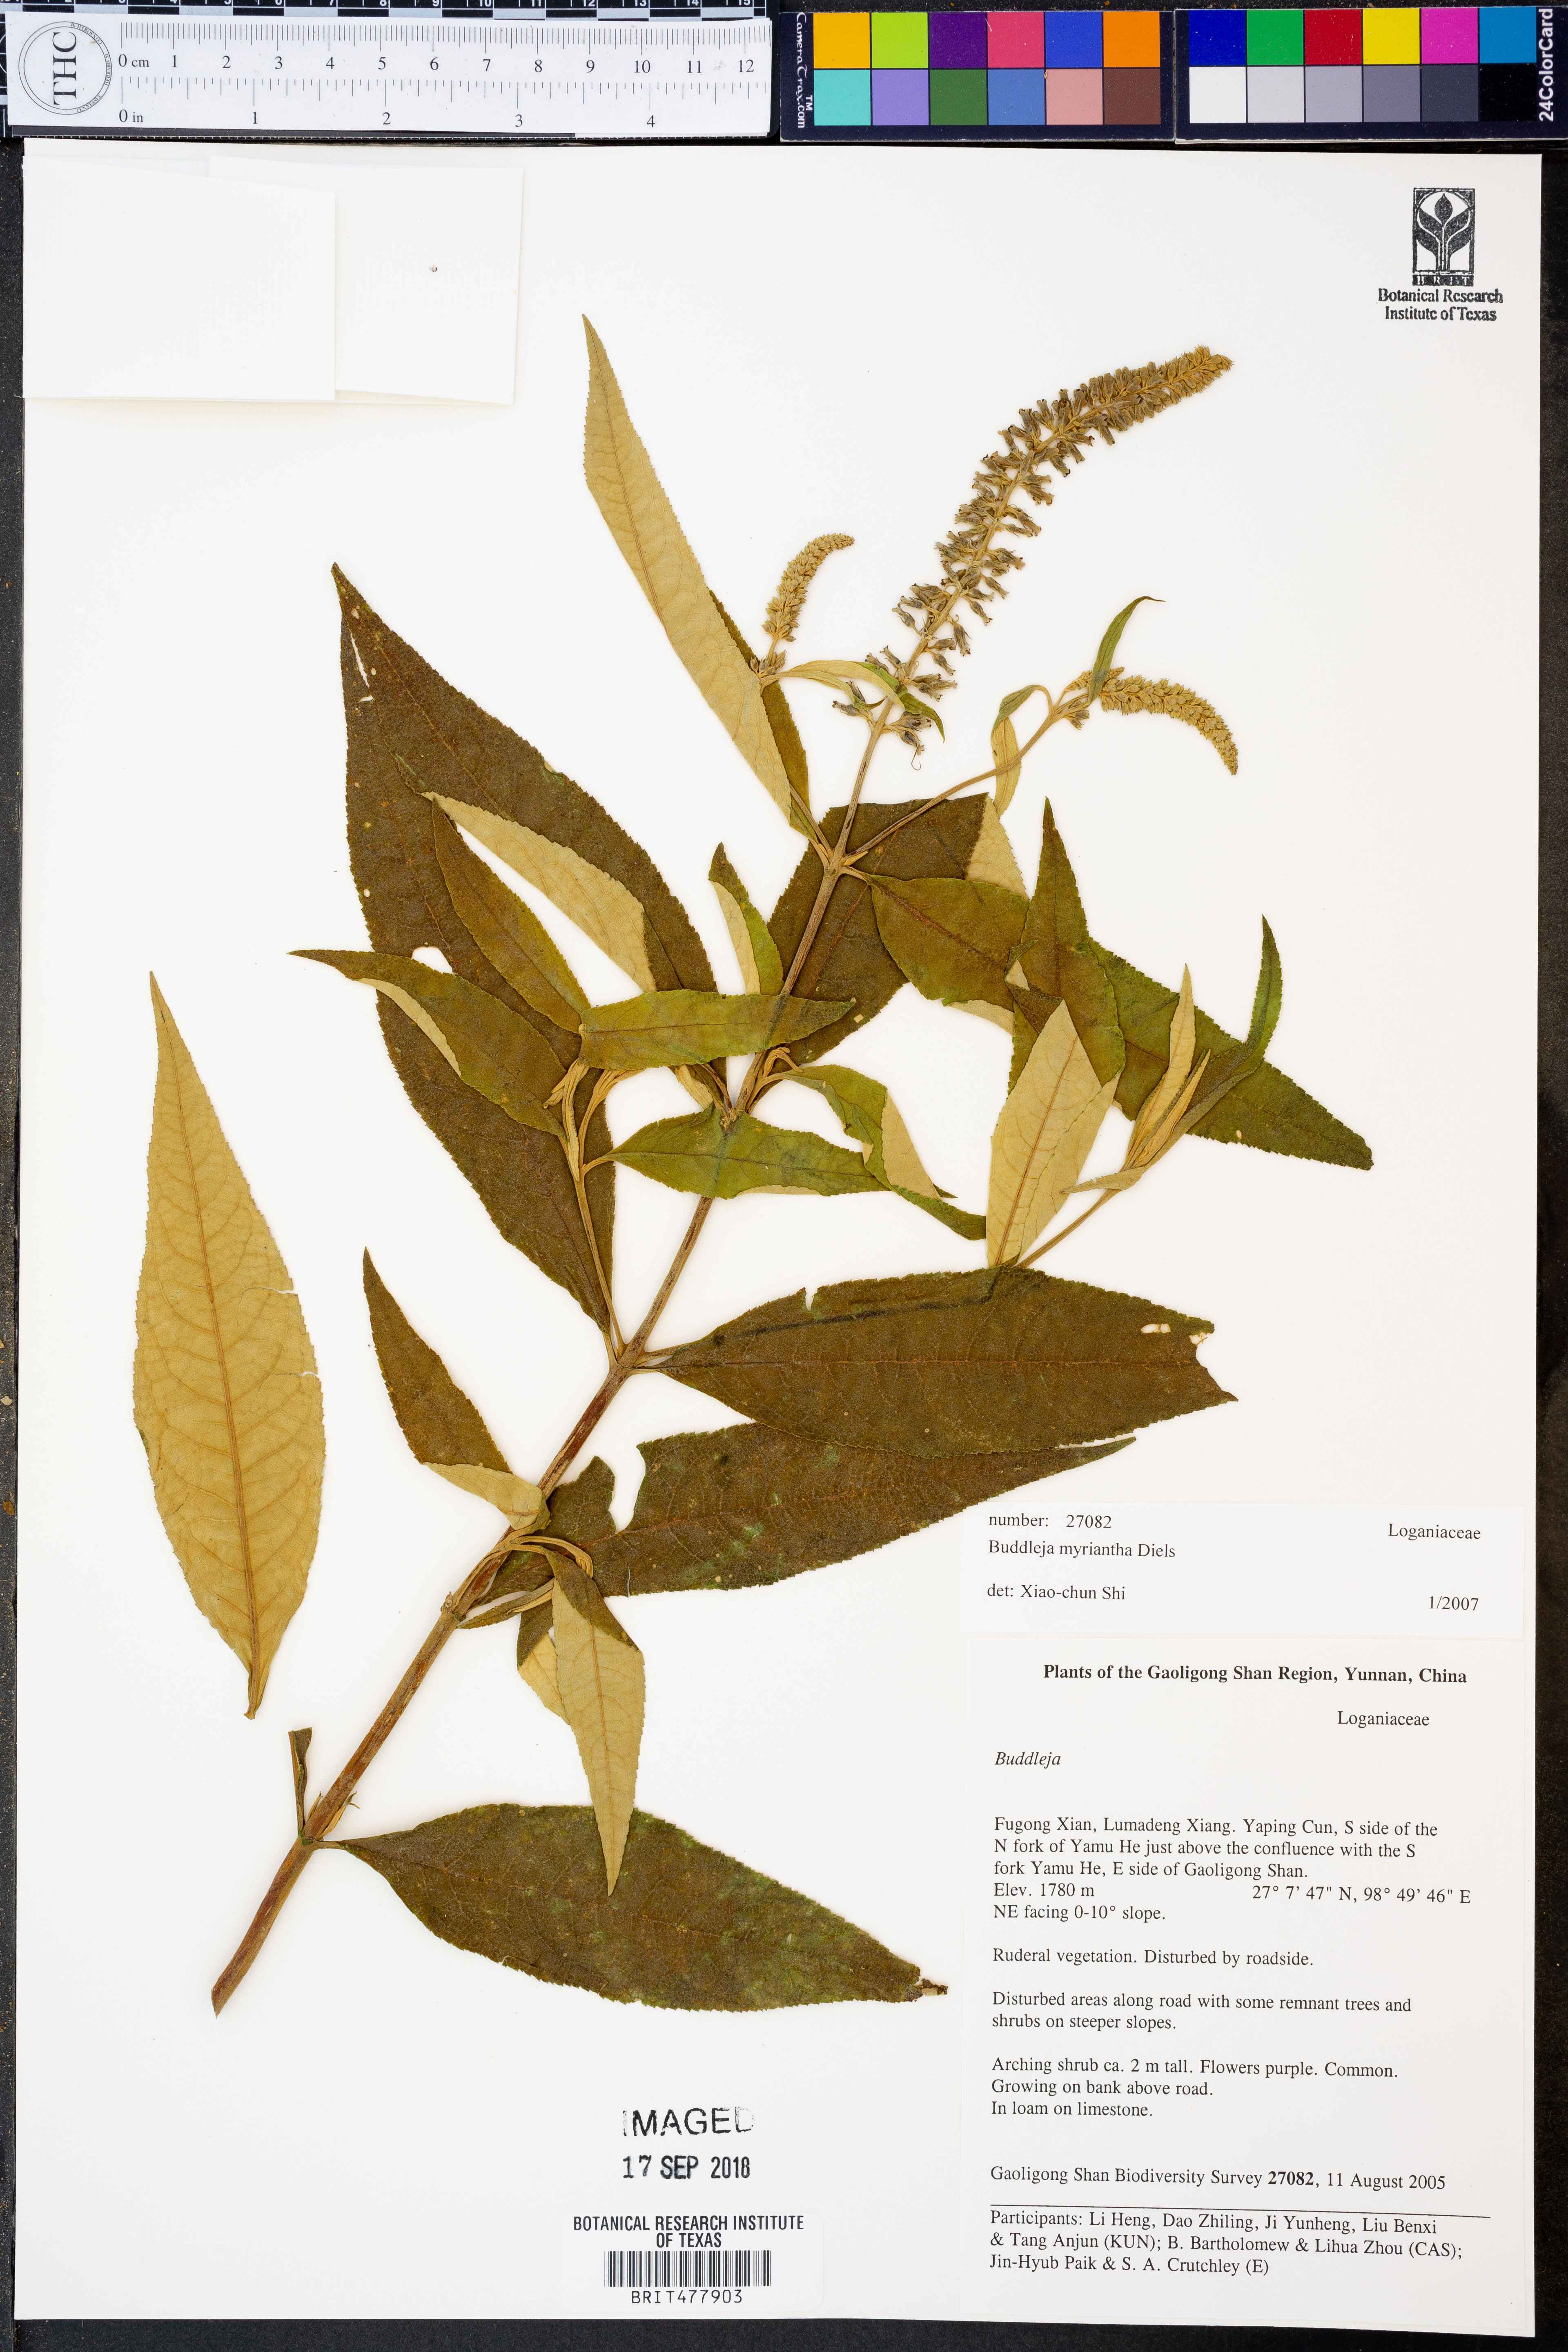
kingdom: Plantae
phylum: Tracheophyta
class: Magnoliopsida
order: Lamiales
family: Scrophulariaceae
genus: Buddleja
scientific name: Buddleja myriantha
